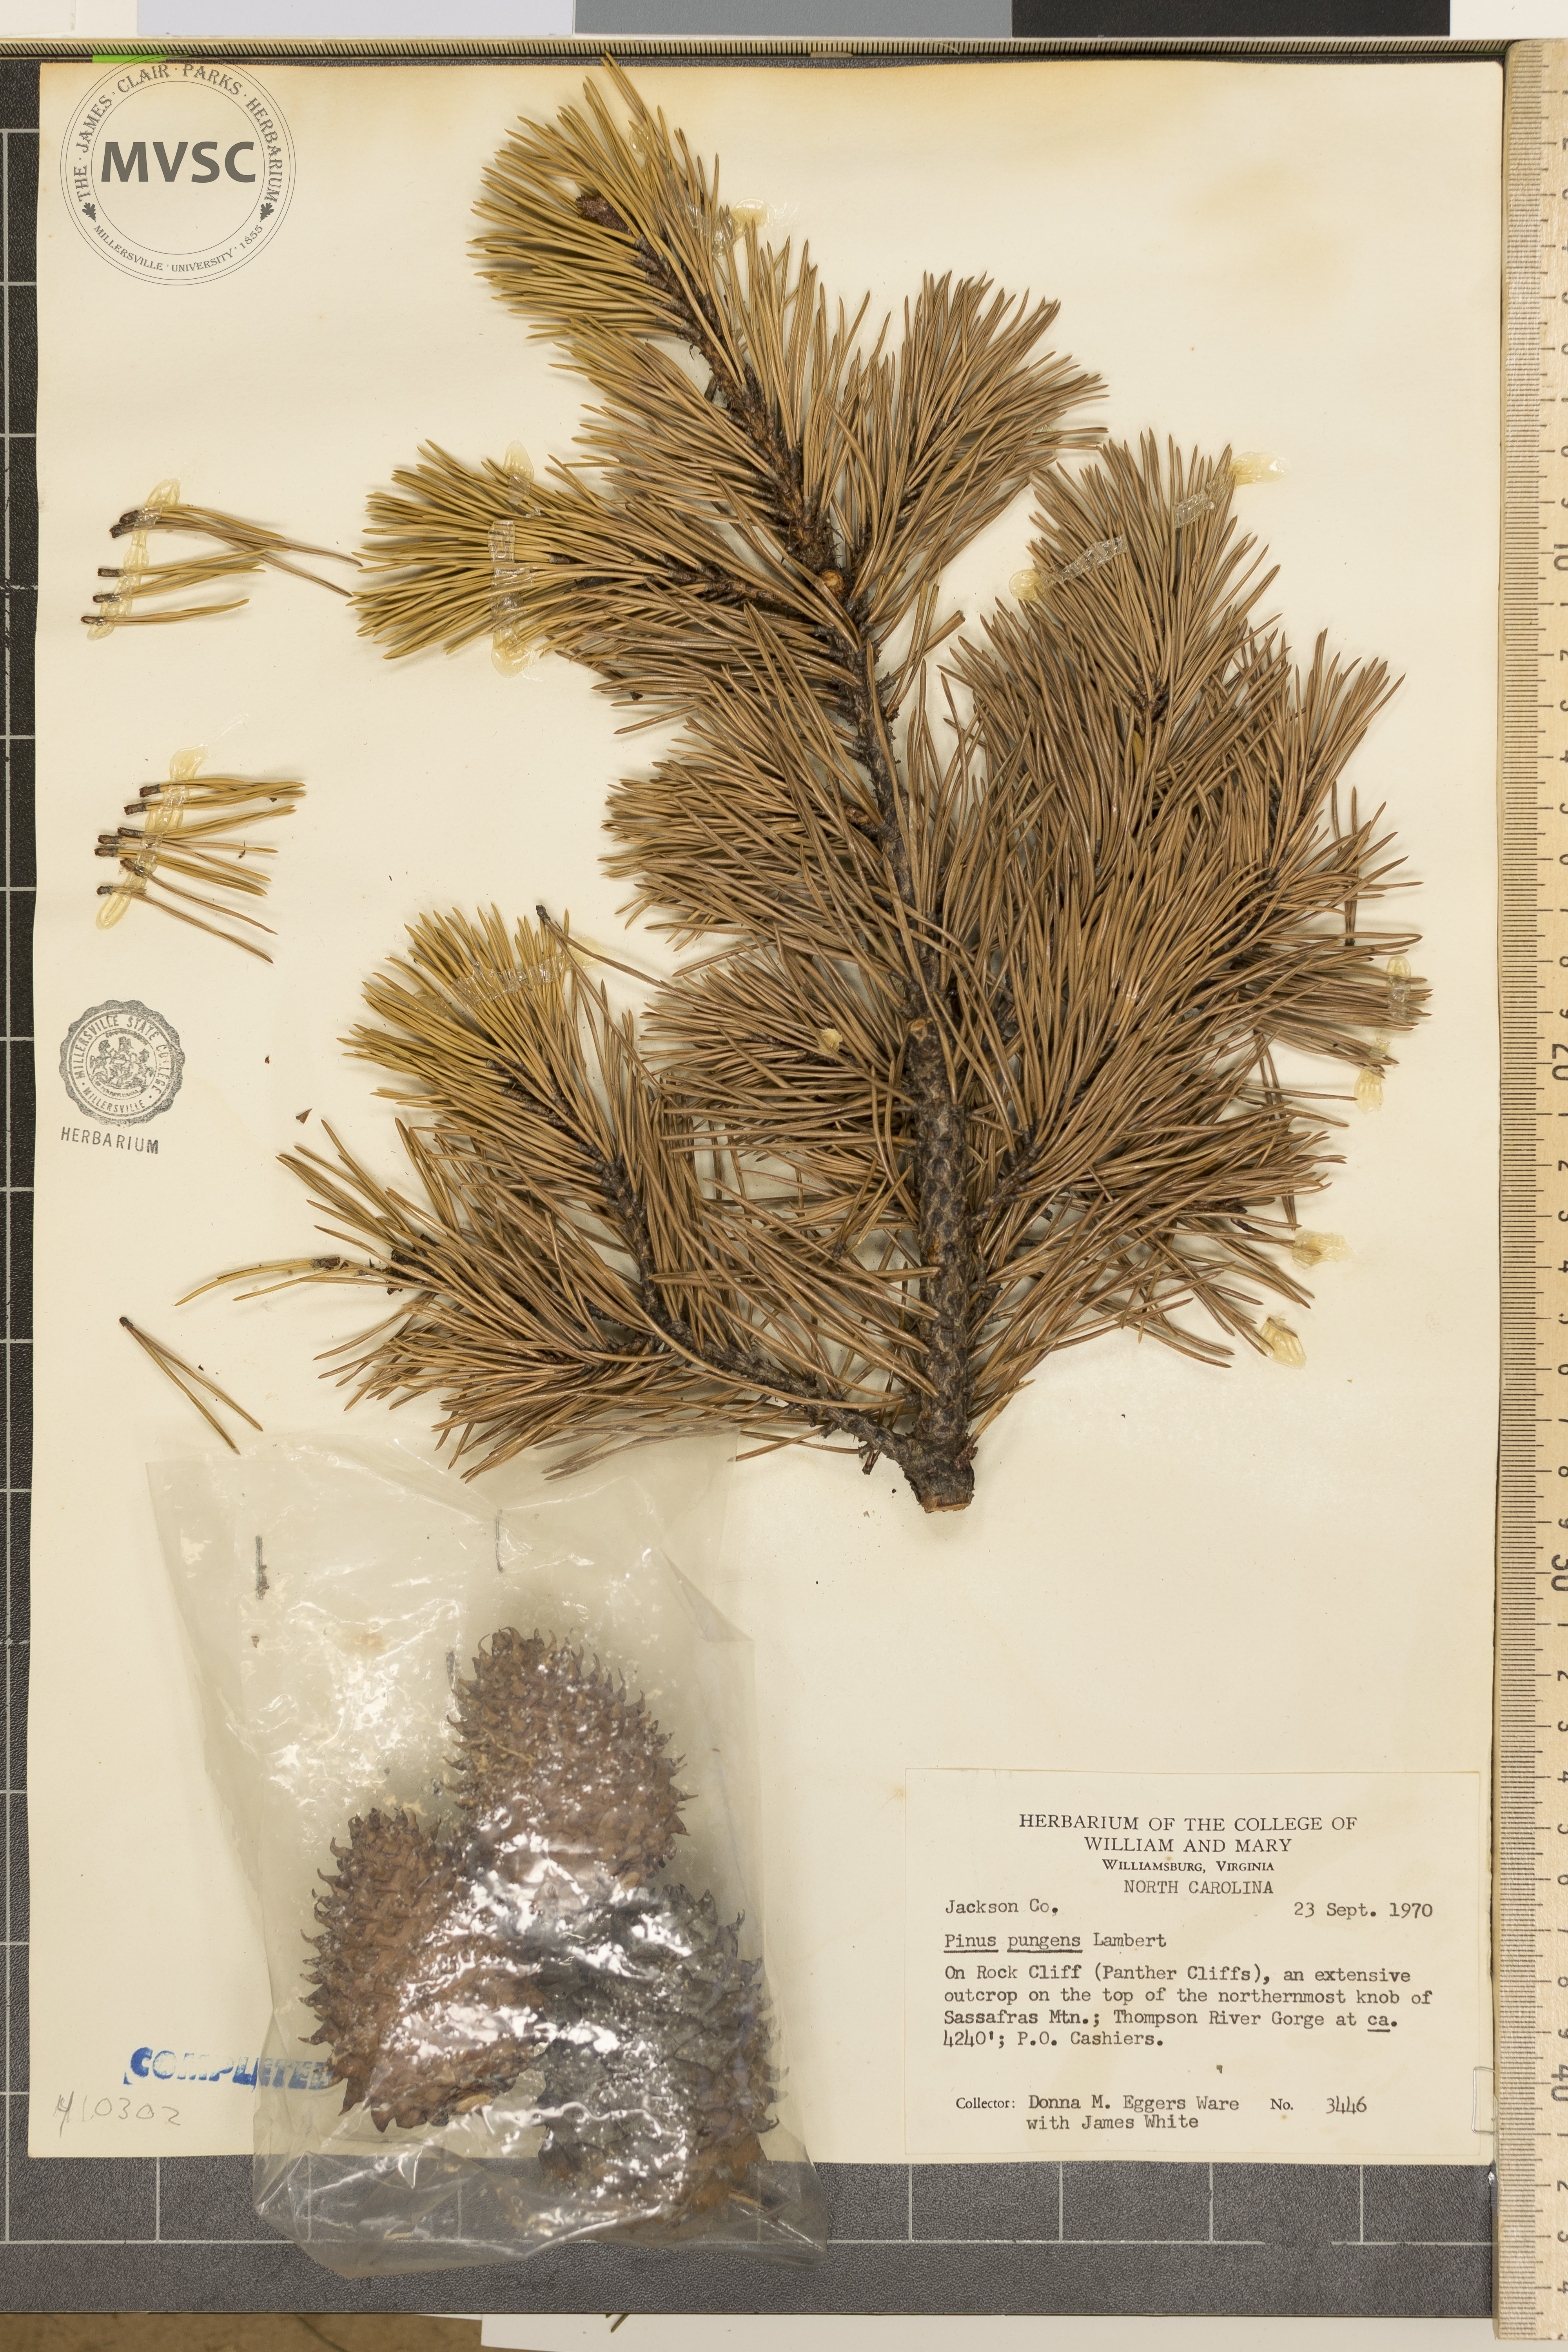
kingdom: Plantae
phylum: Tracheophyta
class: Pinopsida
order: Pinales
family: Pinaceae
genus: Pinus
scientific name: Pinus pungens
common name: Hickory pine
